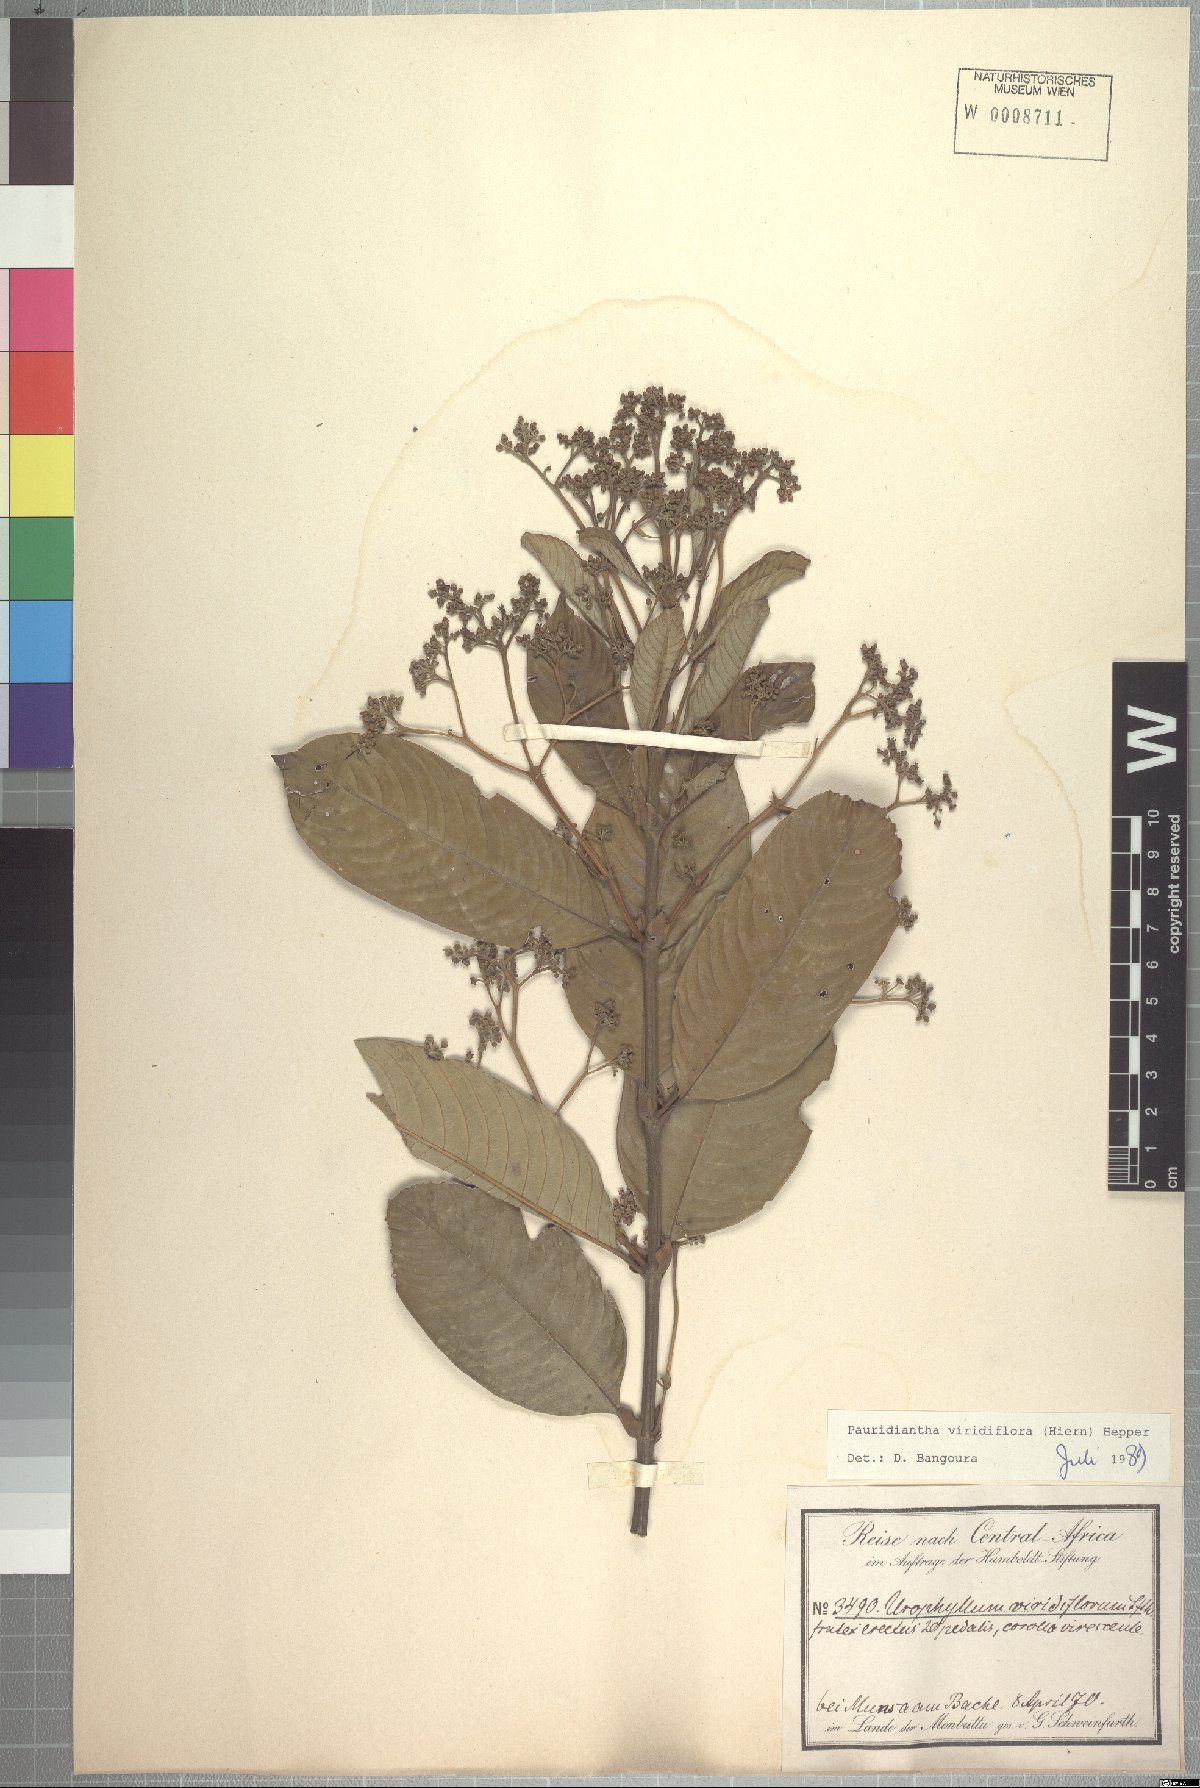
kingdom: Plantae
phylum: Tracheophyta
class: Magnoliopsida
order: Gentianales
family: Rubiaceae
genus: Pauridiantha
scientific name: Pauridiantha viridiflora
